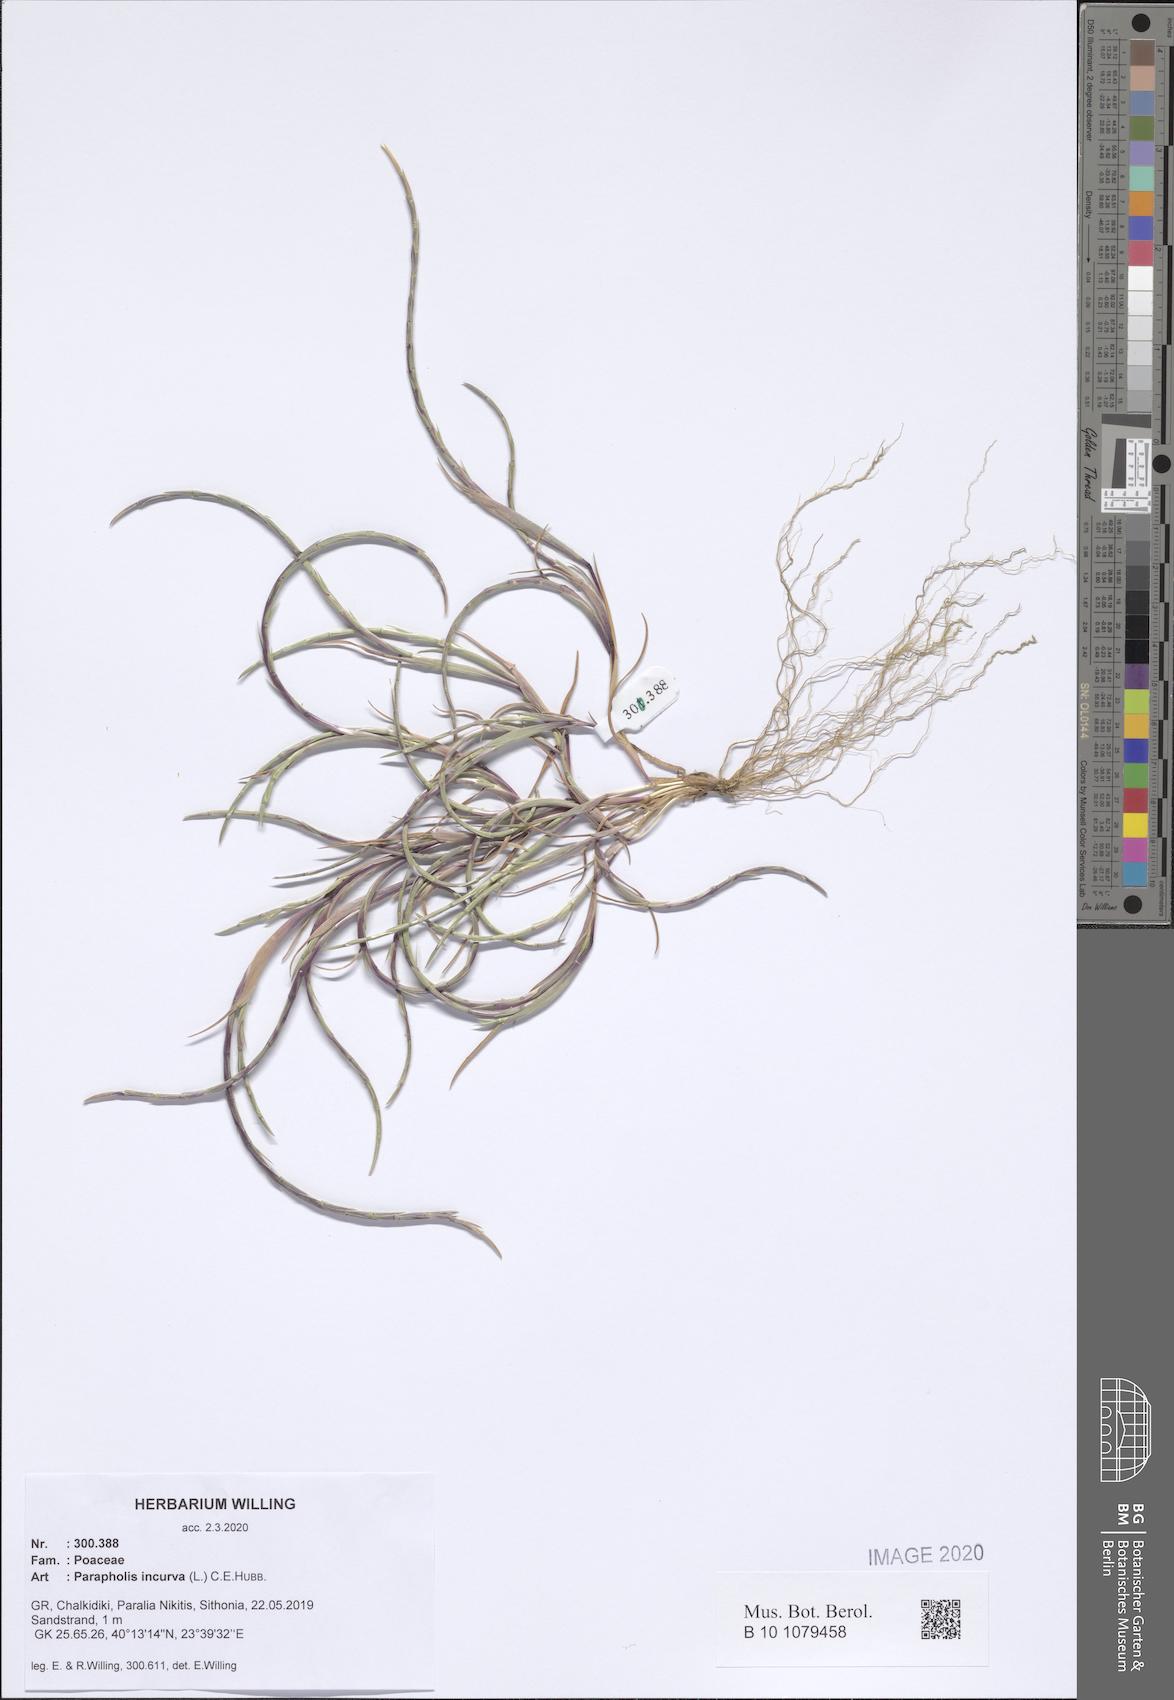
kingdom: Plantae
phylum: Tracheophyta
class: Liliopsida
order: Poales
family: Poaceae
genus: Parapholis
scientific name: Parapholis incurva
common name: Curved sicklegrass
